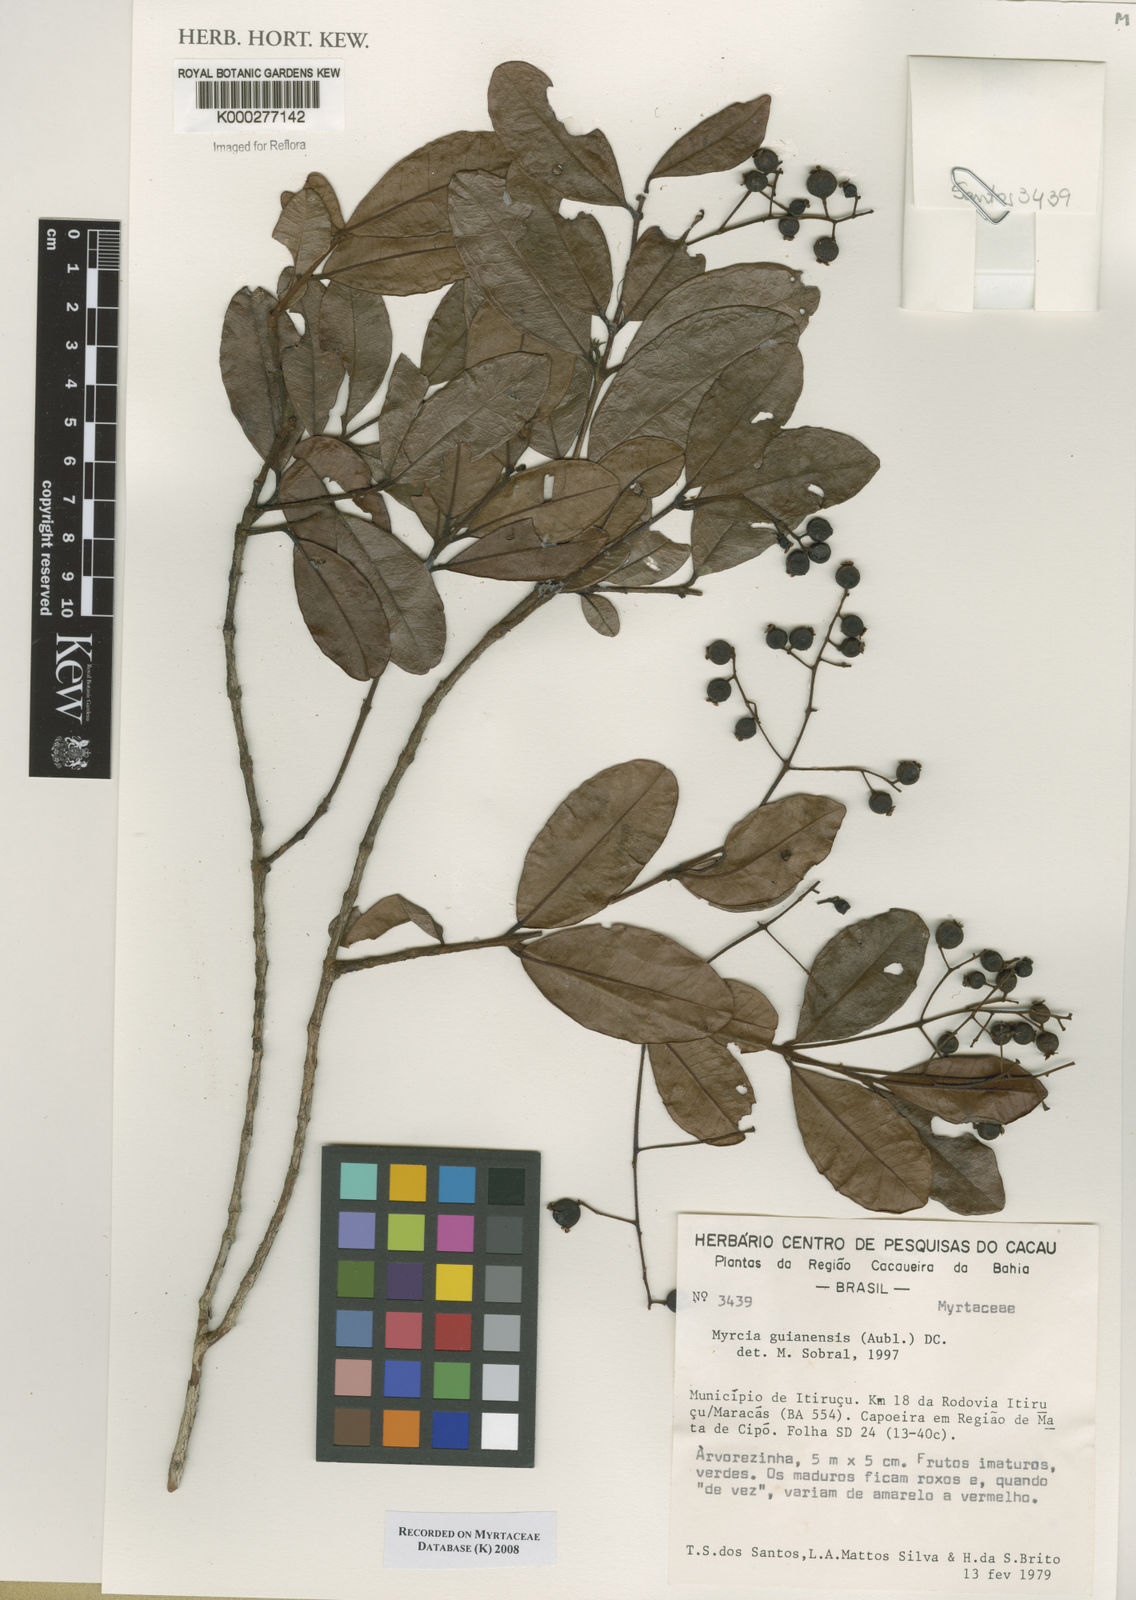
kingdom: Plantae
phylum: Tracheophyta
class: Magnoliopsida
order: Myrtales
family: Myrtaceae
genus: Myrcia
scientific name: Myrcia guianensis
